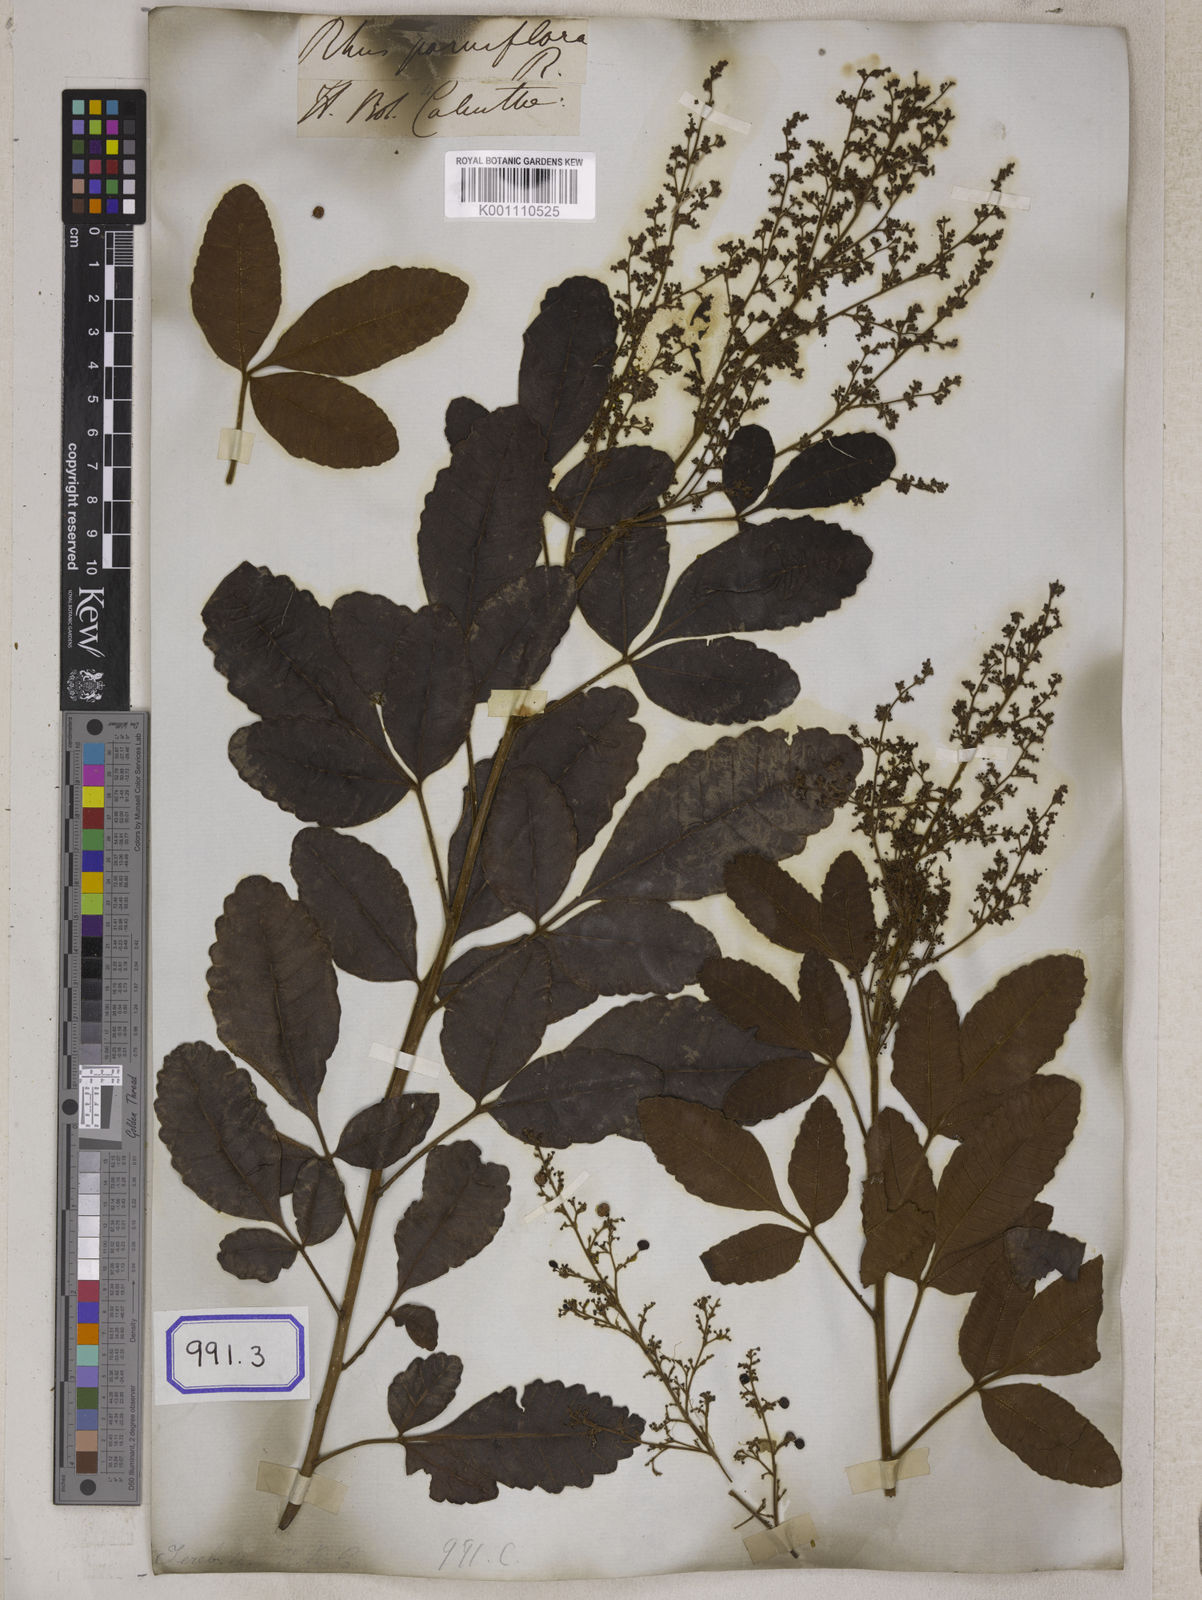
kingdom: Plantae
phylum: Tracheophyta
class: Magnoliopsida
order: Sapindales
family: Anacardiaceae
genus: Searsia
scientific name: Searsia parviflora
